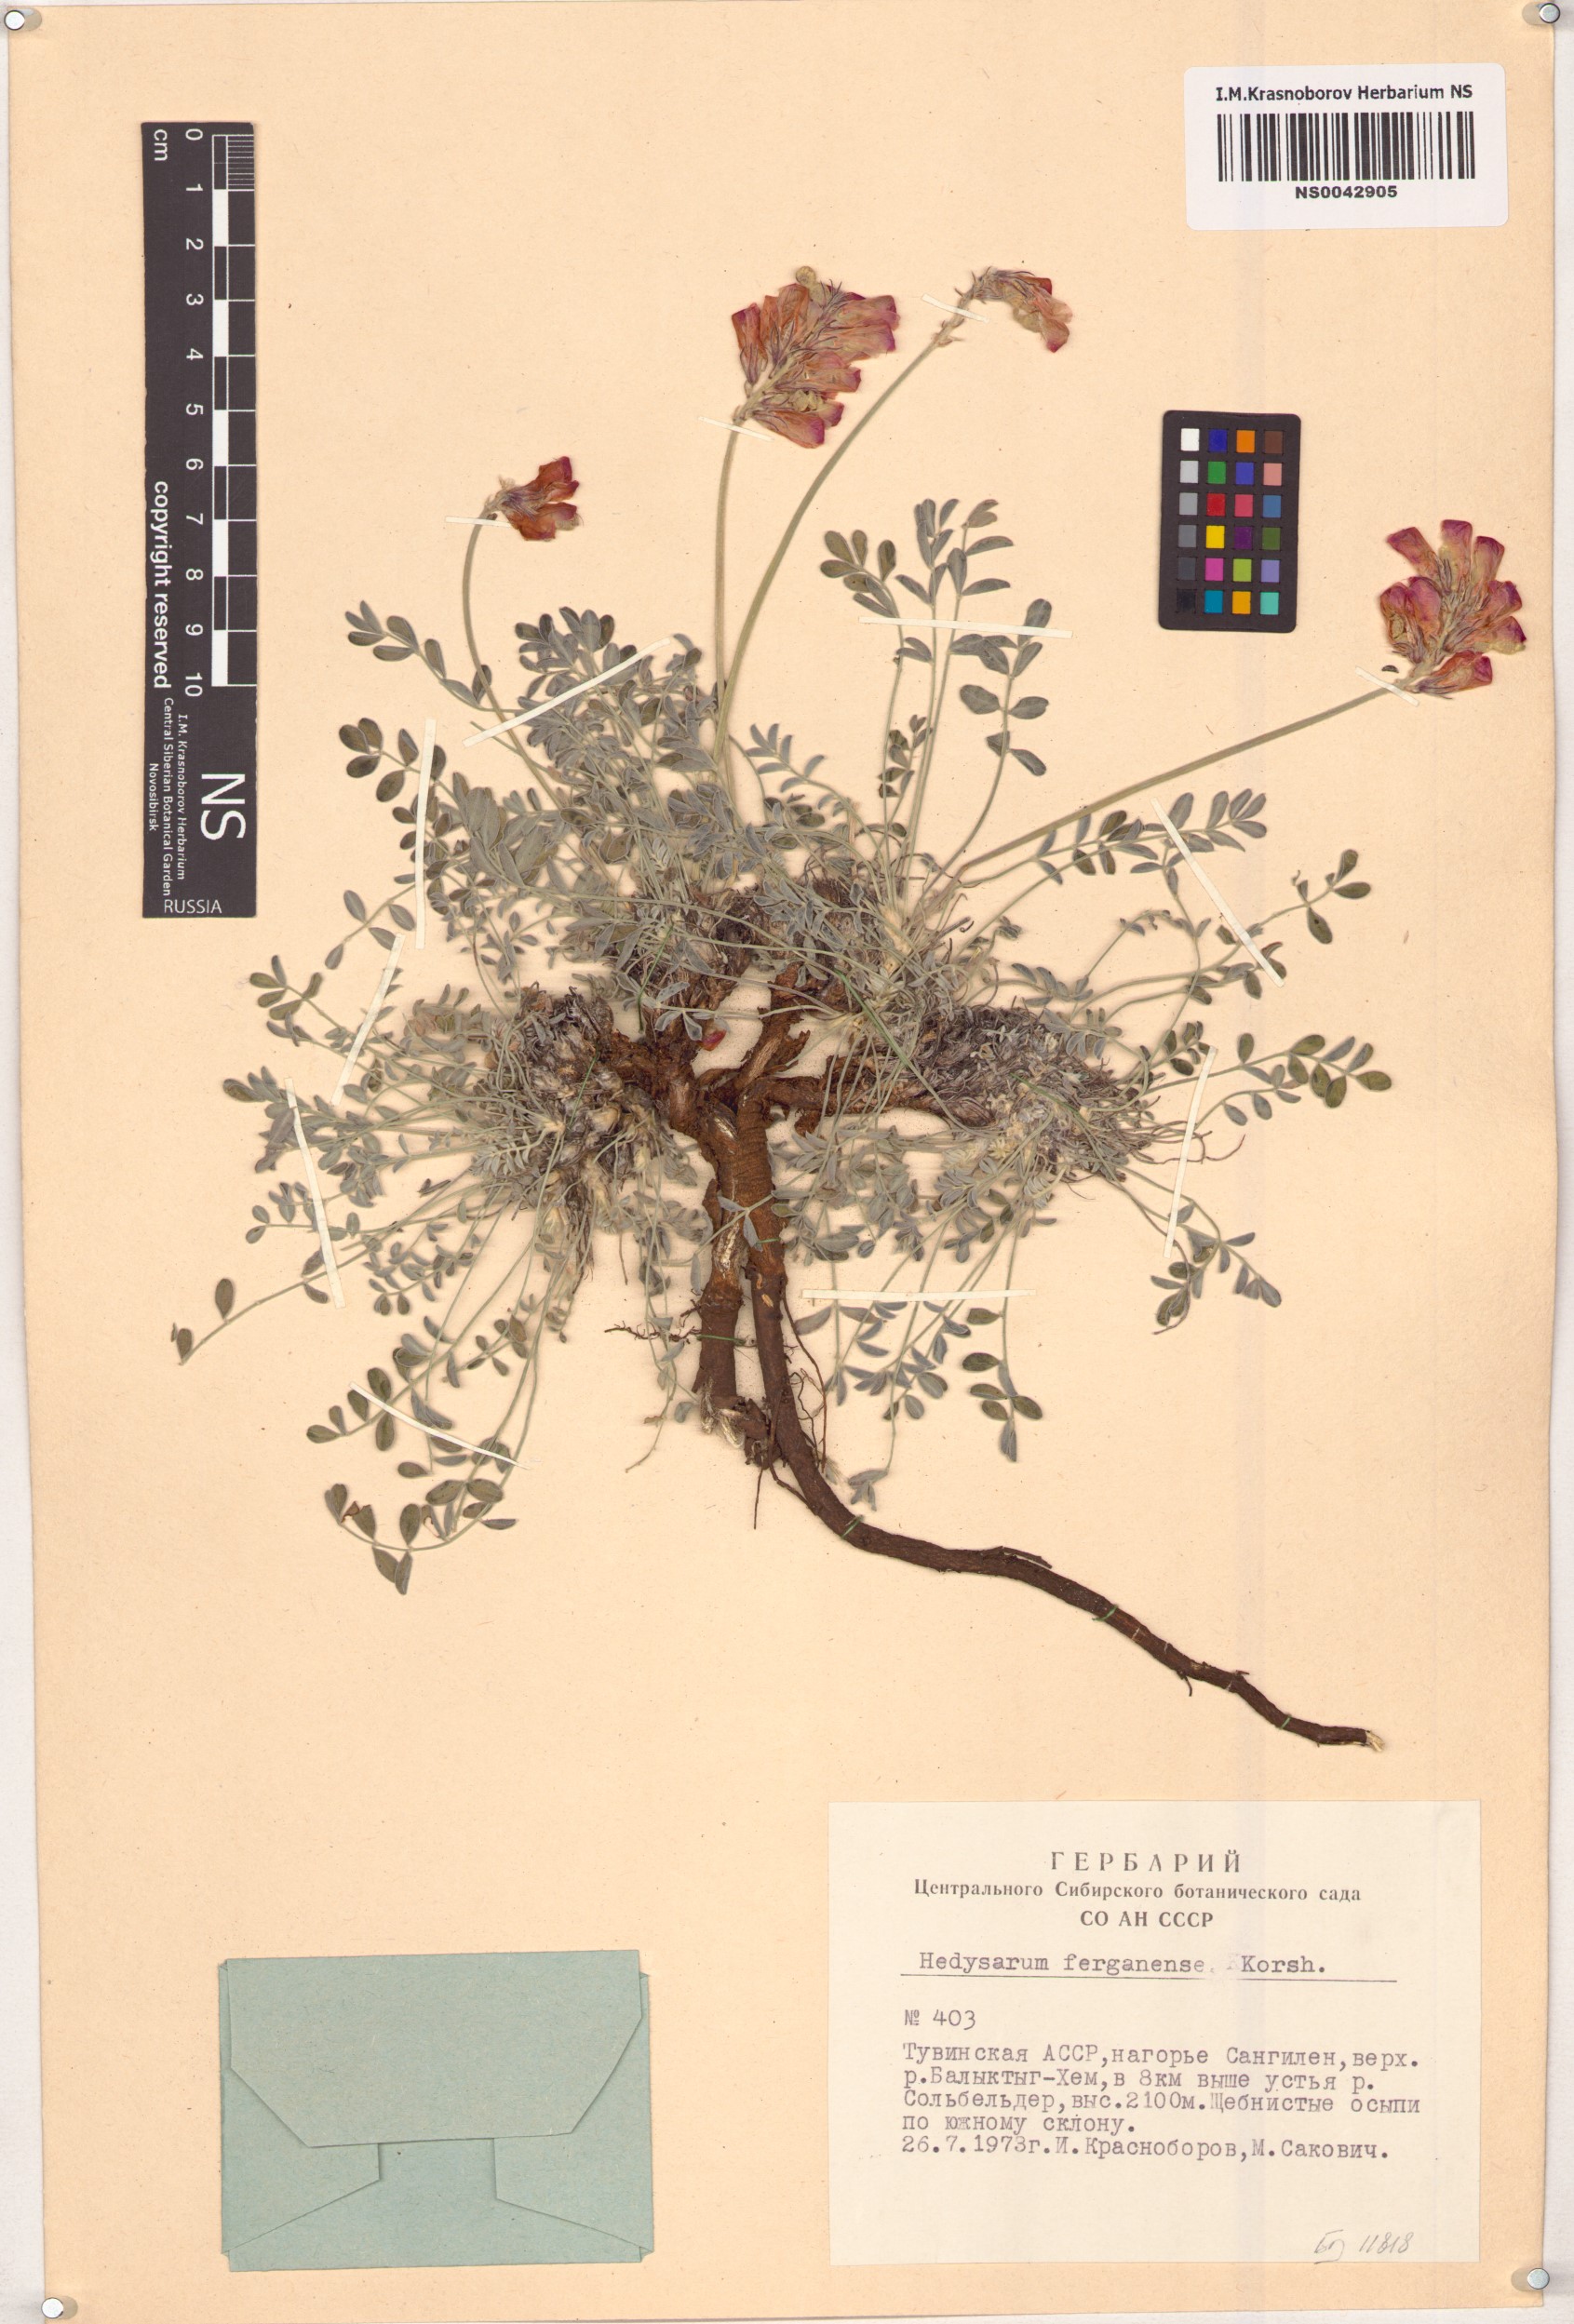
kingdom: Plantae
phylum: Tracheophyta
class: Magnoliopsida
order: Fabales
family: Fabaceae
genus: Hedysarum
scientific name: Hedysarum ferganense
